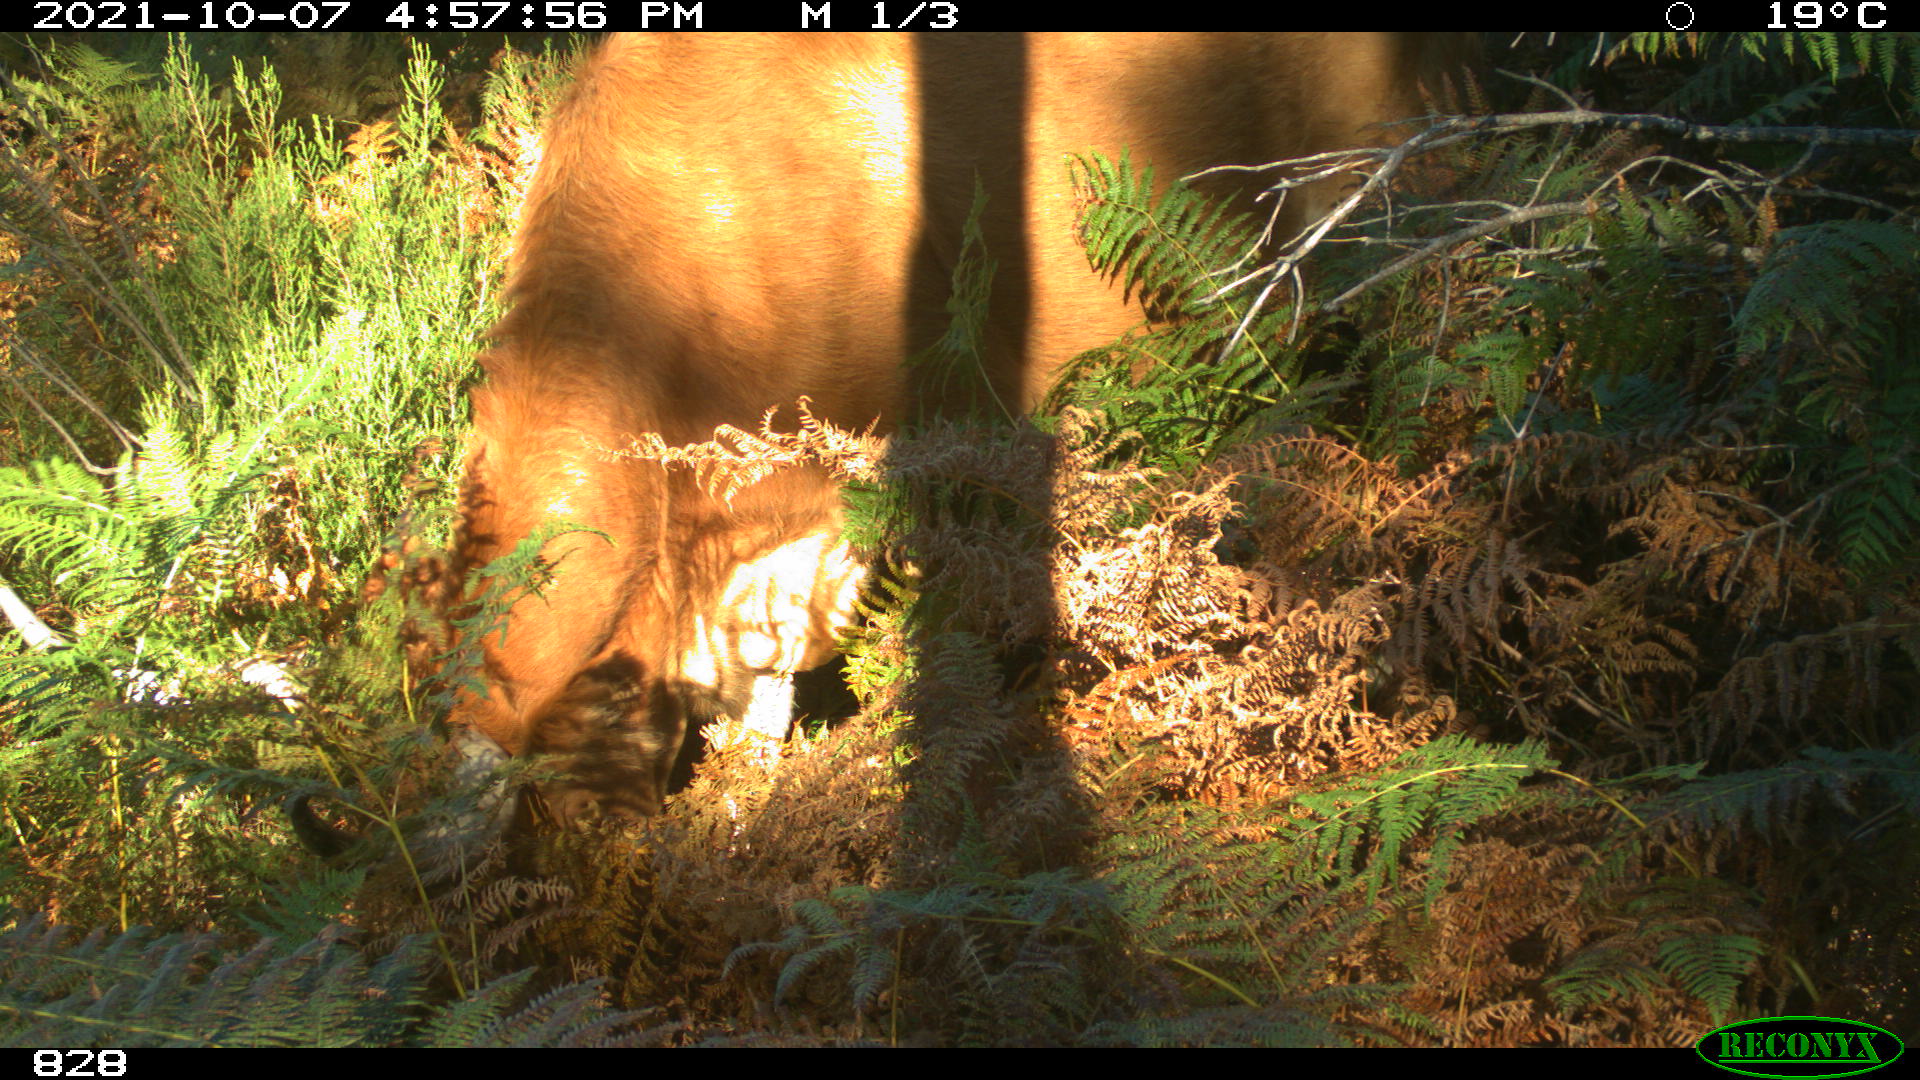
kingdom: Animalia
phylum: Chordata
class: Mammalia
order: Artiodactyla
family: Bovidae
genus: Bos
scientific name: Bos taurus
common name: Domesticated cattle
